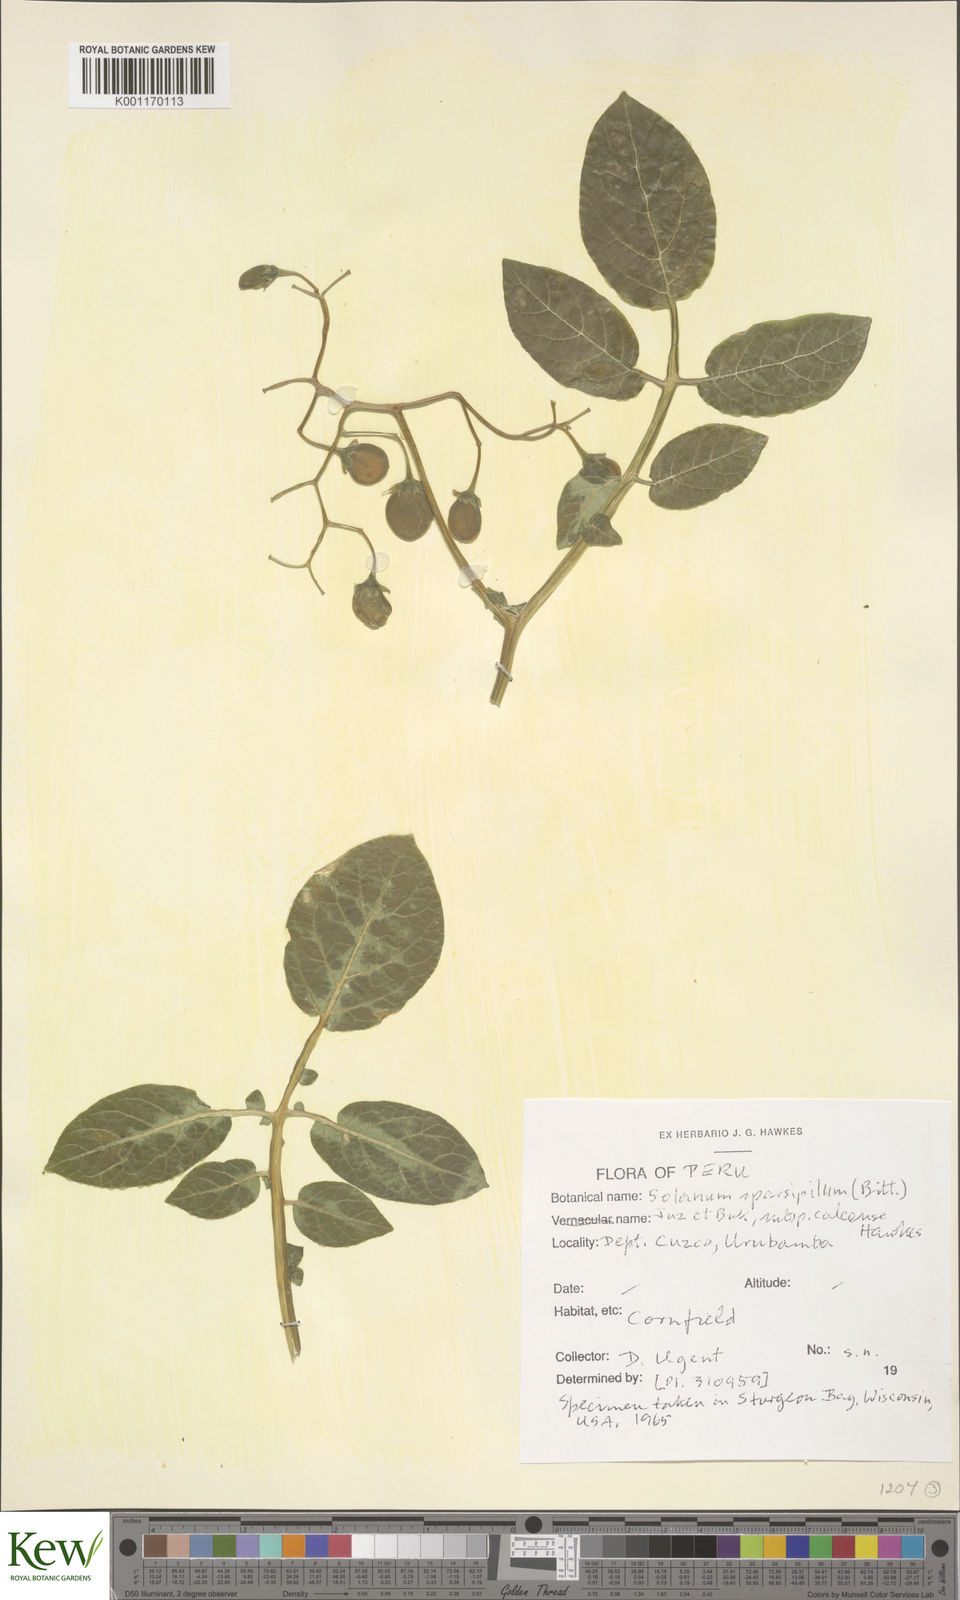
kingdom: Plantae
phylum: Tracheophyta
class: Magnoliopsida
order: Solanales
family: Solanaceae
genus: Solanum
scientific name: Solanum brevicaule
